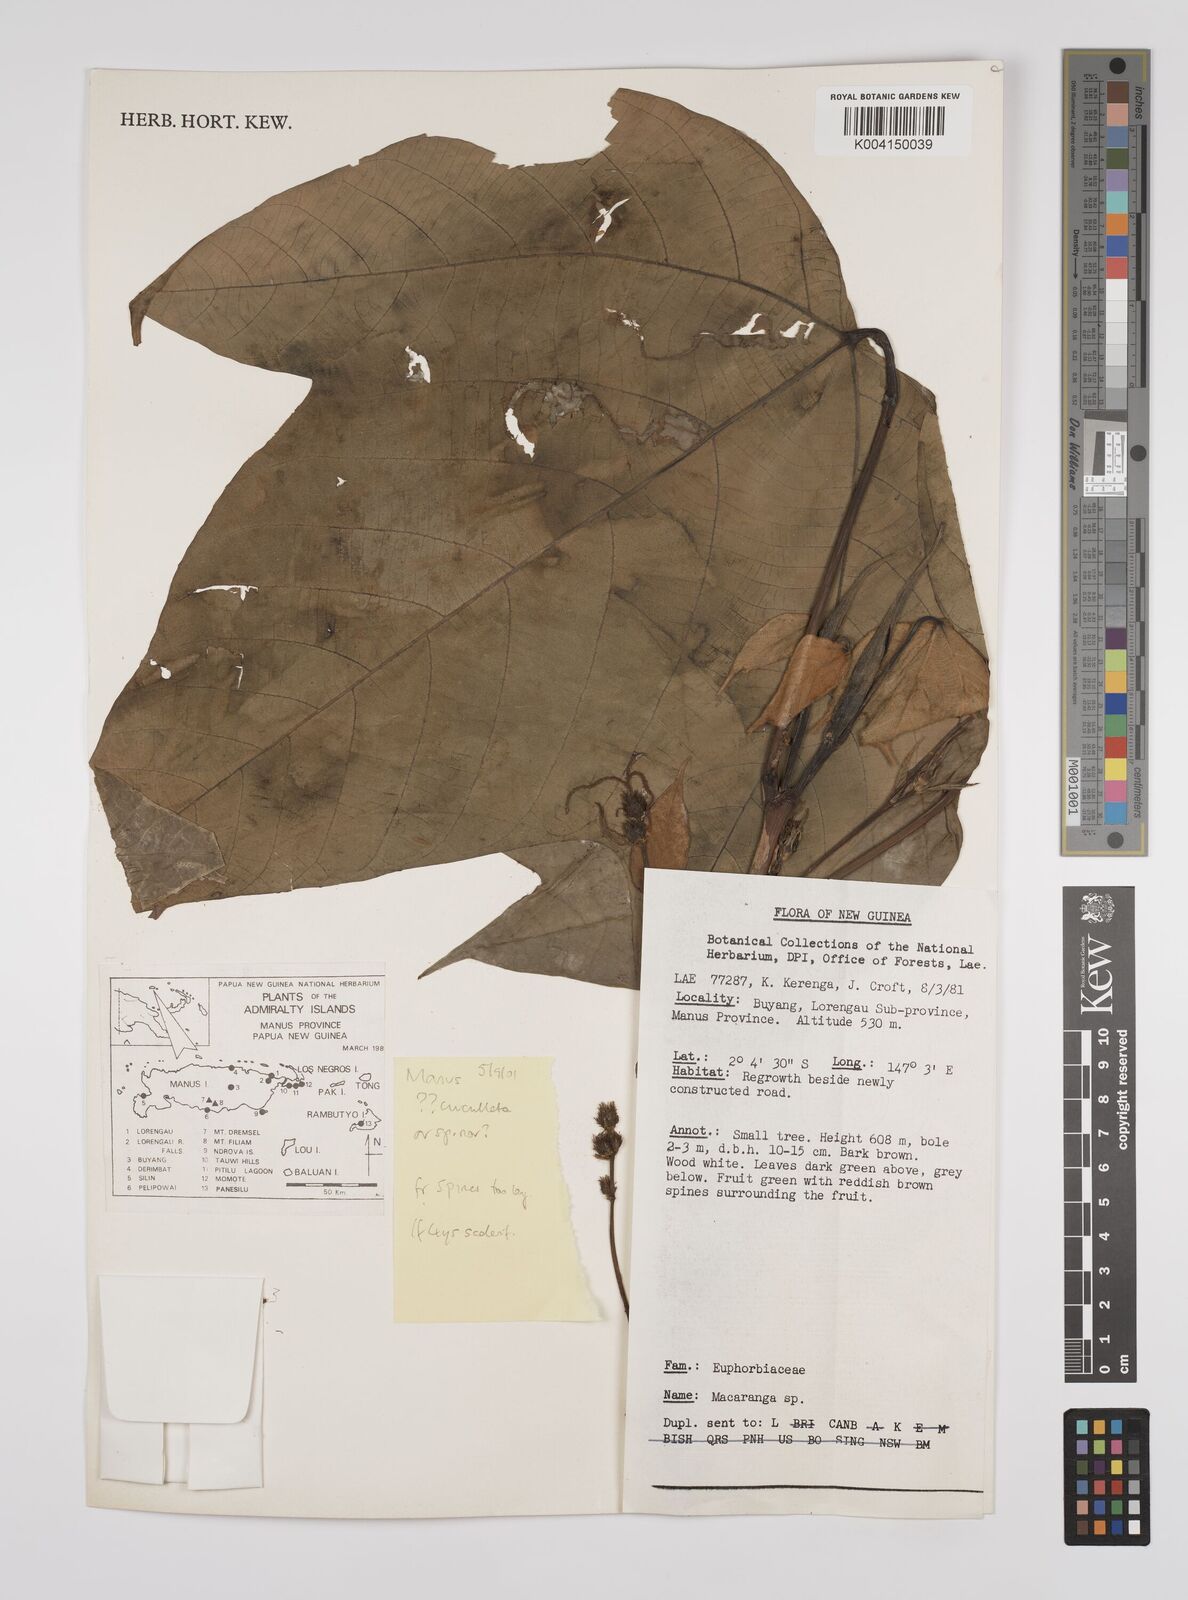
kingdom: Plantae
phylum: Tracheophyta
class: Magnoliopsida
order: Malpighiales
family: Euphorbiaceae
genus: Macaranga
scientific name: Macaranga
